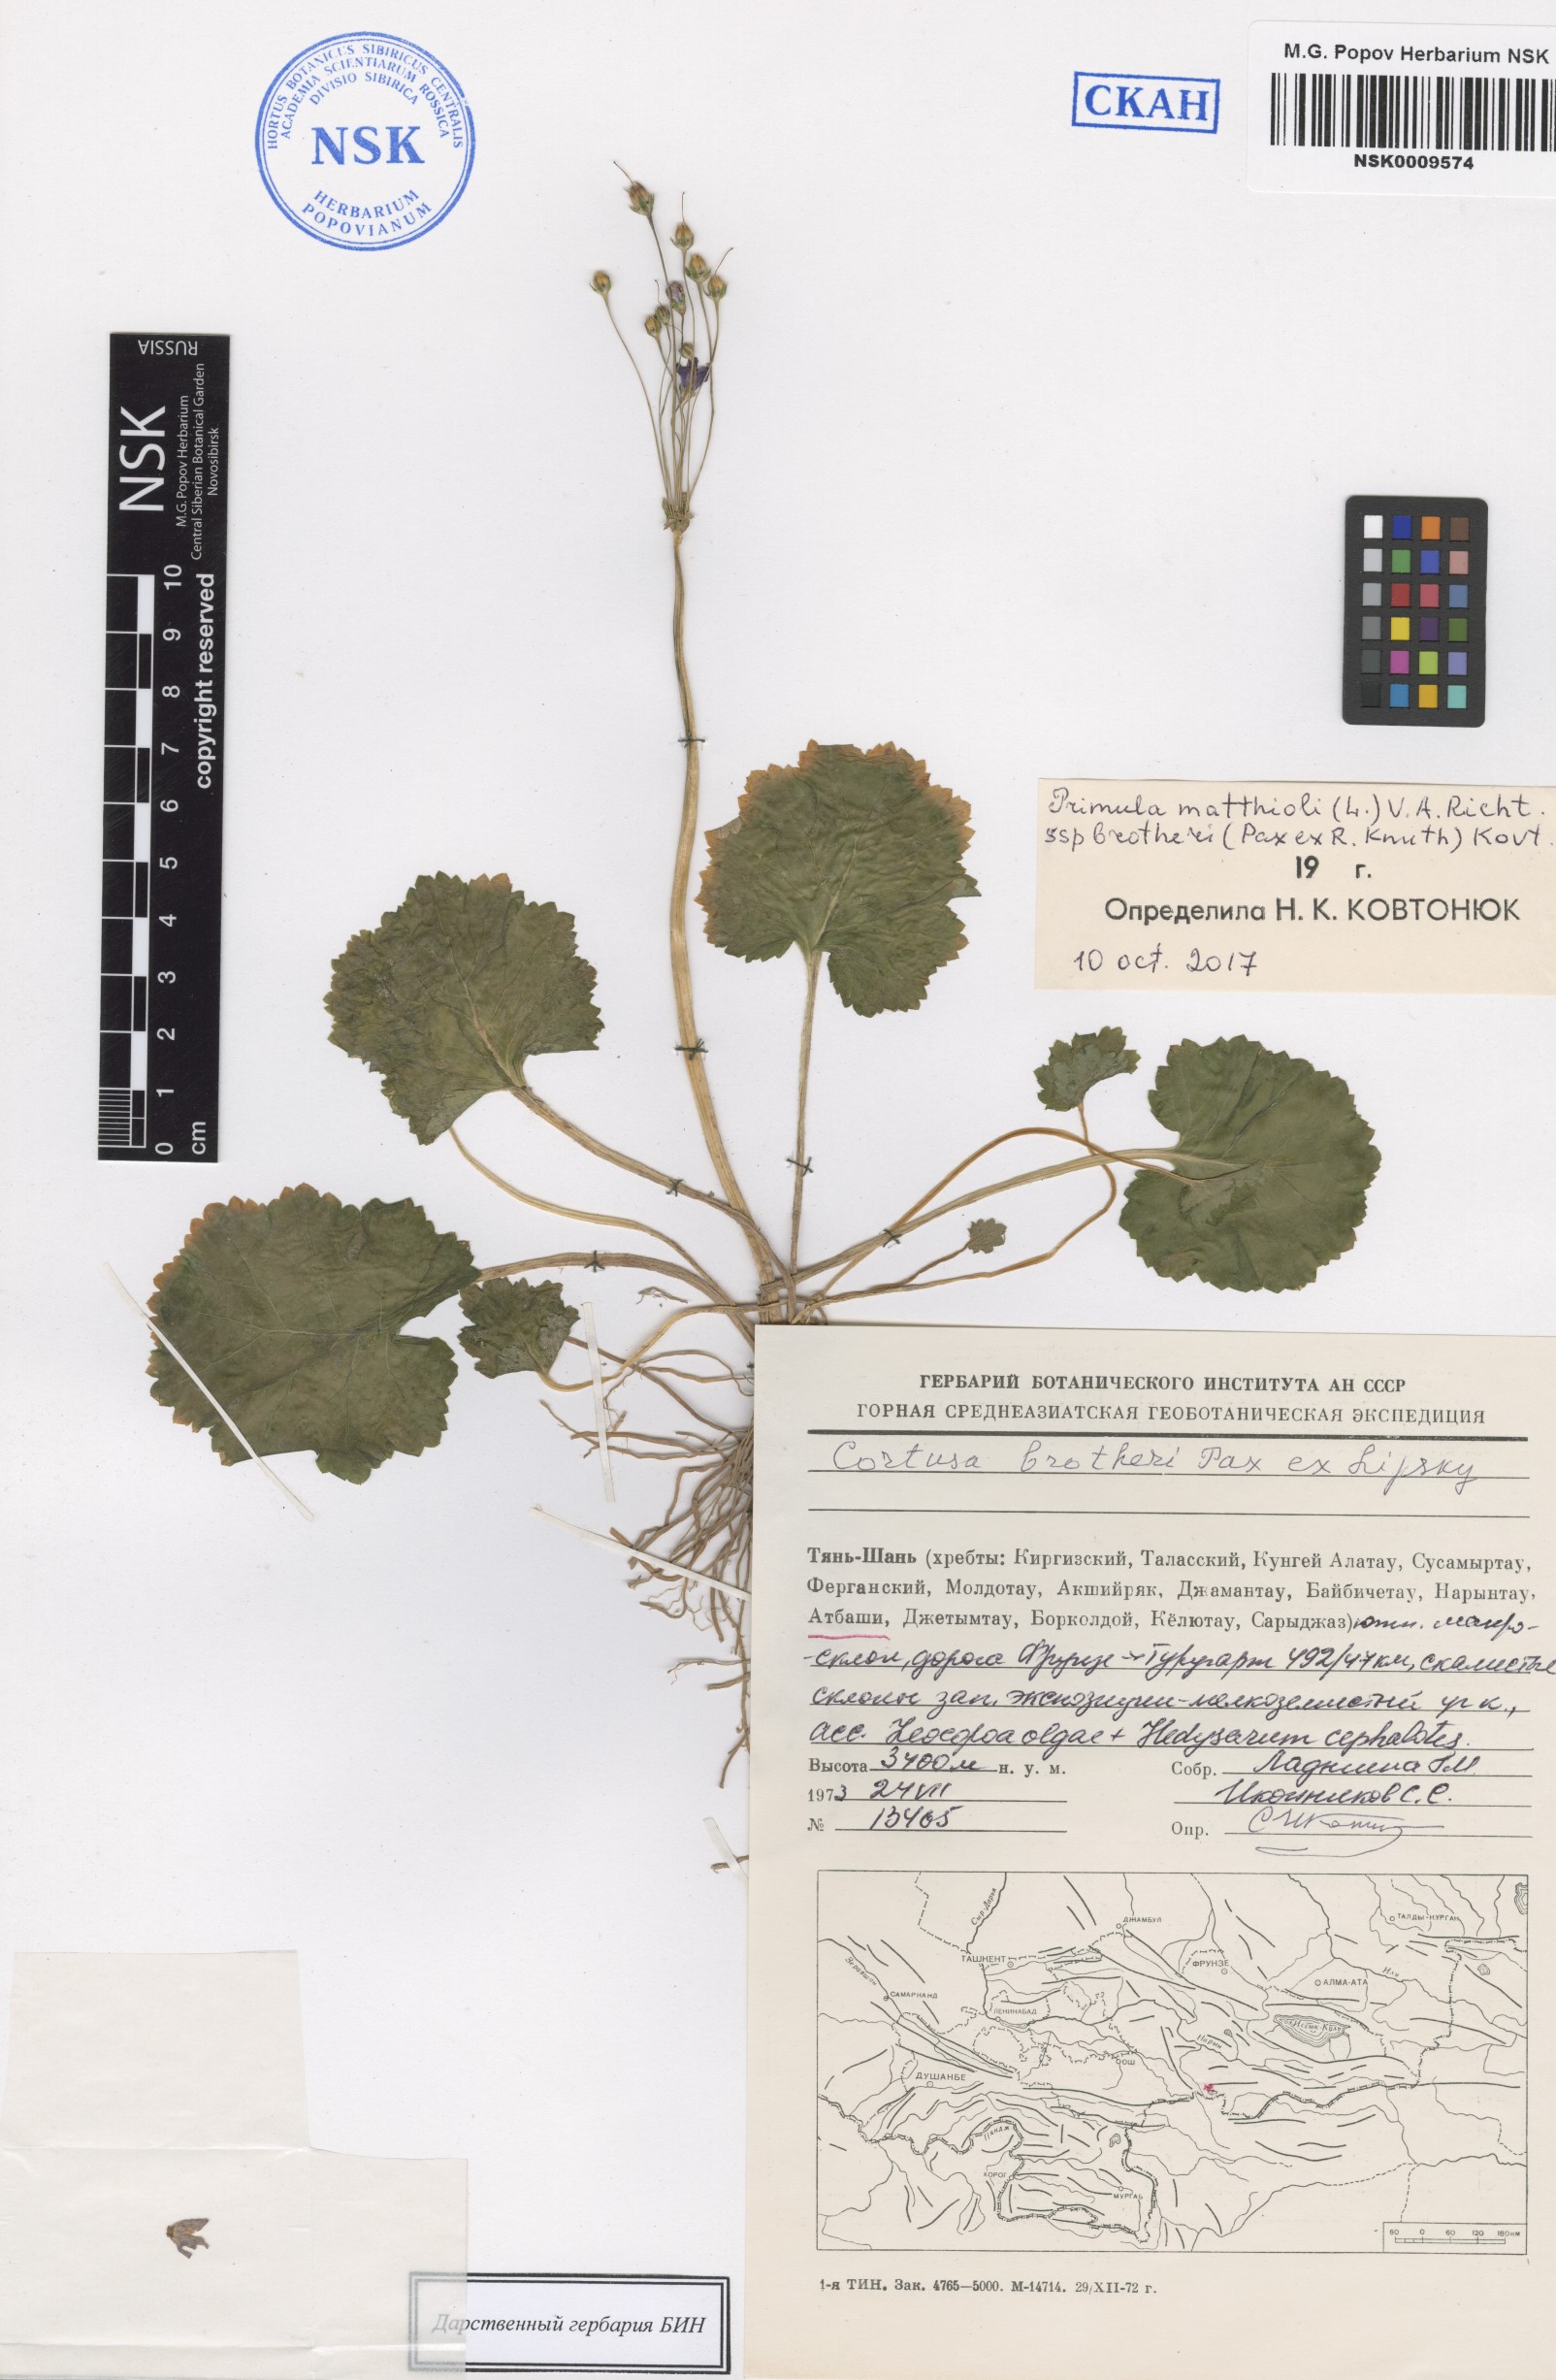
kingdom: Plantae
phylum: Tracheophyta
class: Magnoliopsida
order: Ericales
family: Primulaceae
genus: Primula
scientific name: Primula matthioli
